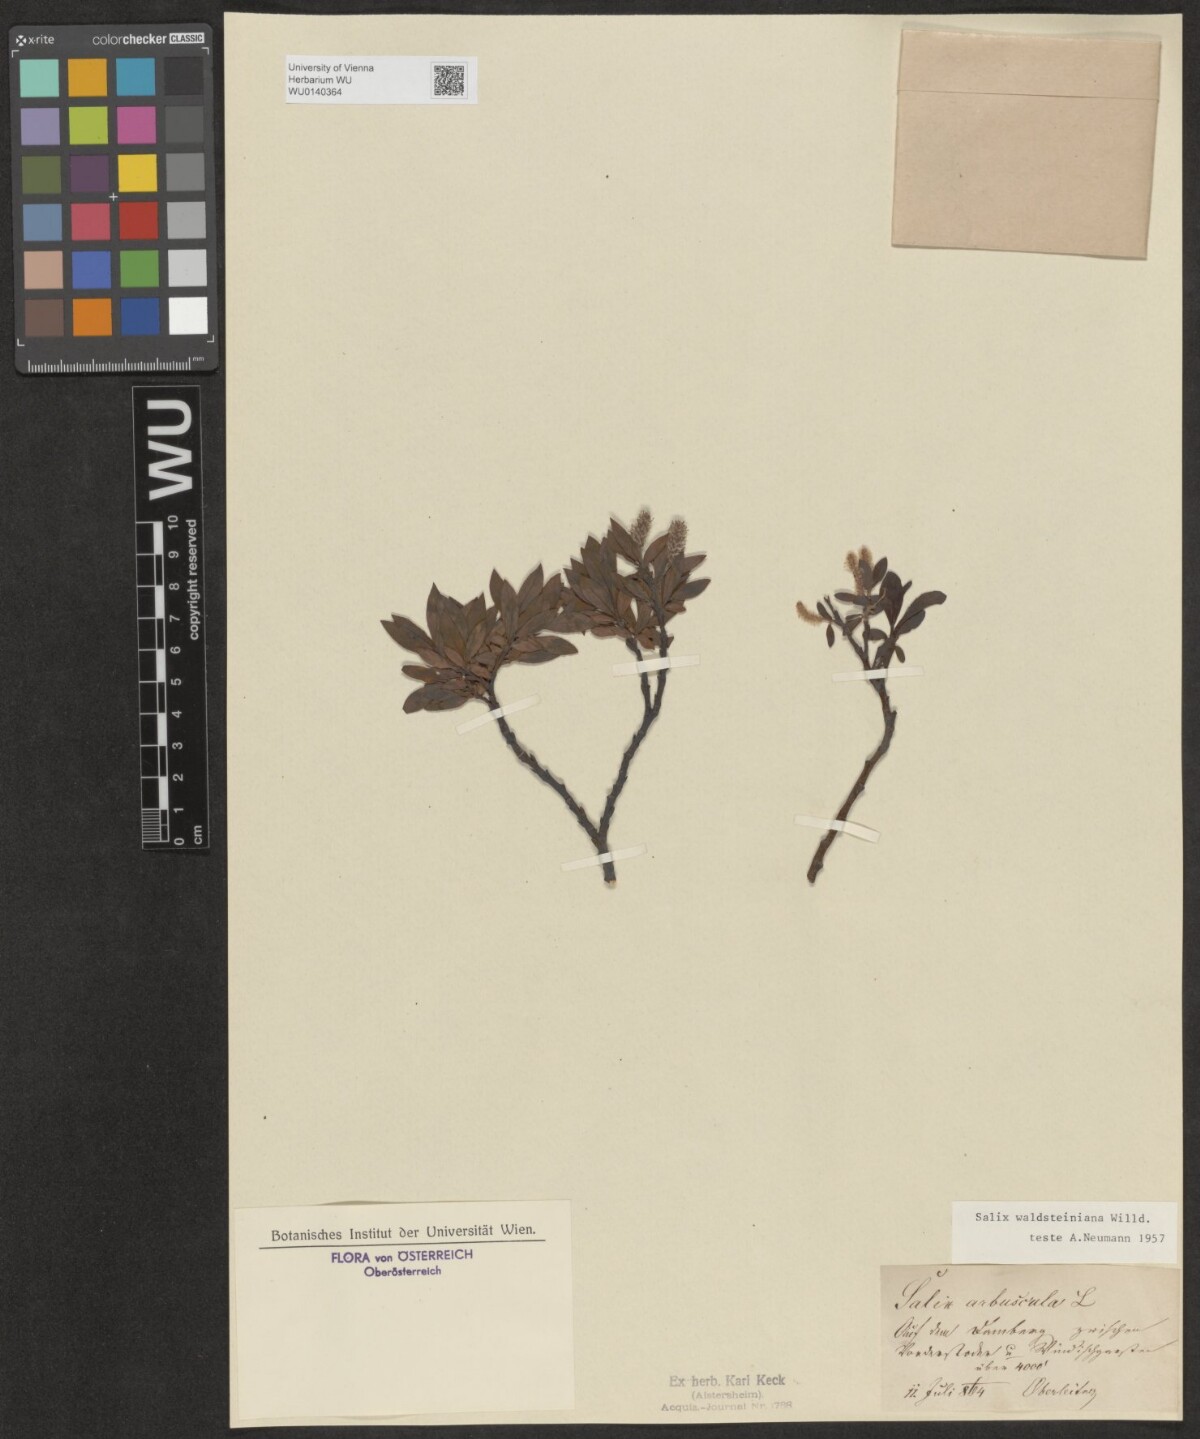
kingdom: Plantae
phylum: Tracheophyta
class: Magnoliopsida
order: Malpighiales
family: Salicaceae
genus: Salix
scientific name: Salix waldsteiniana
